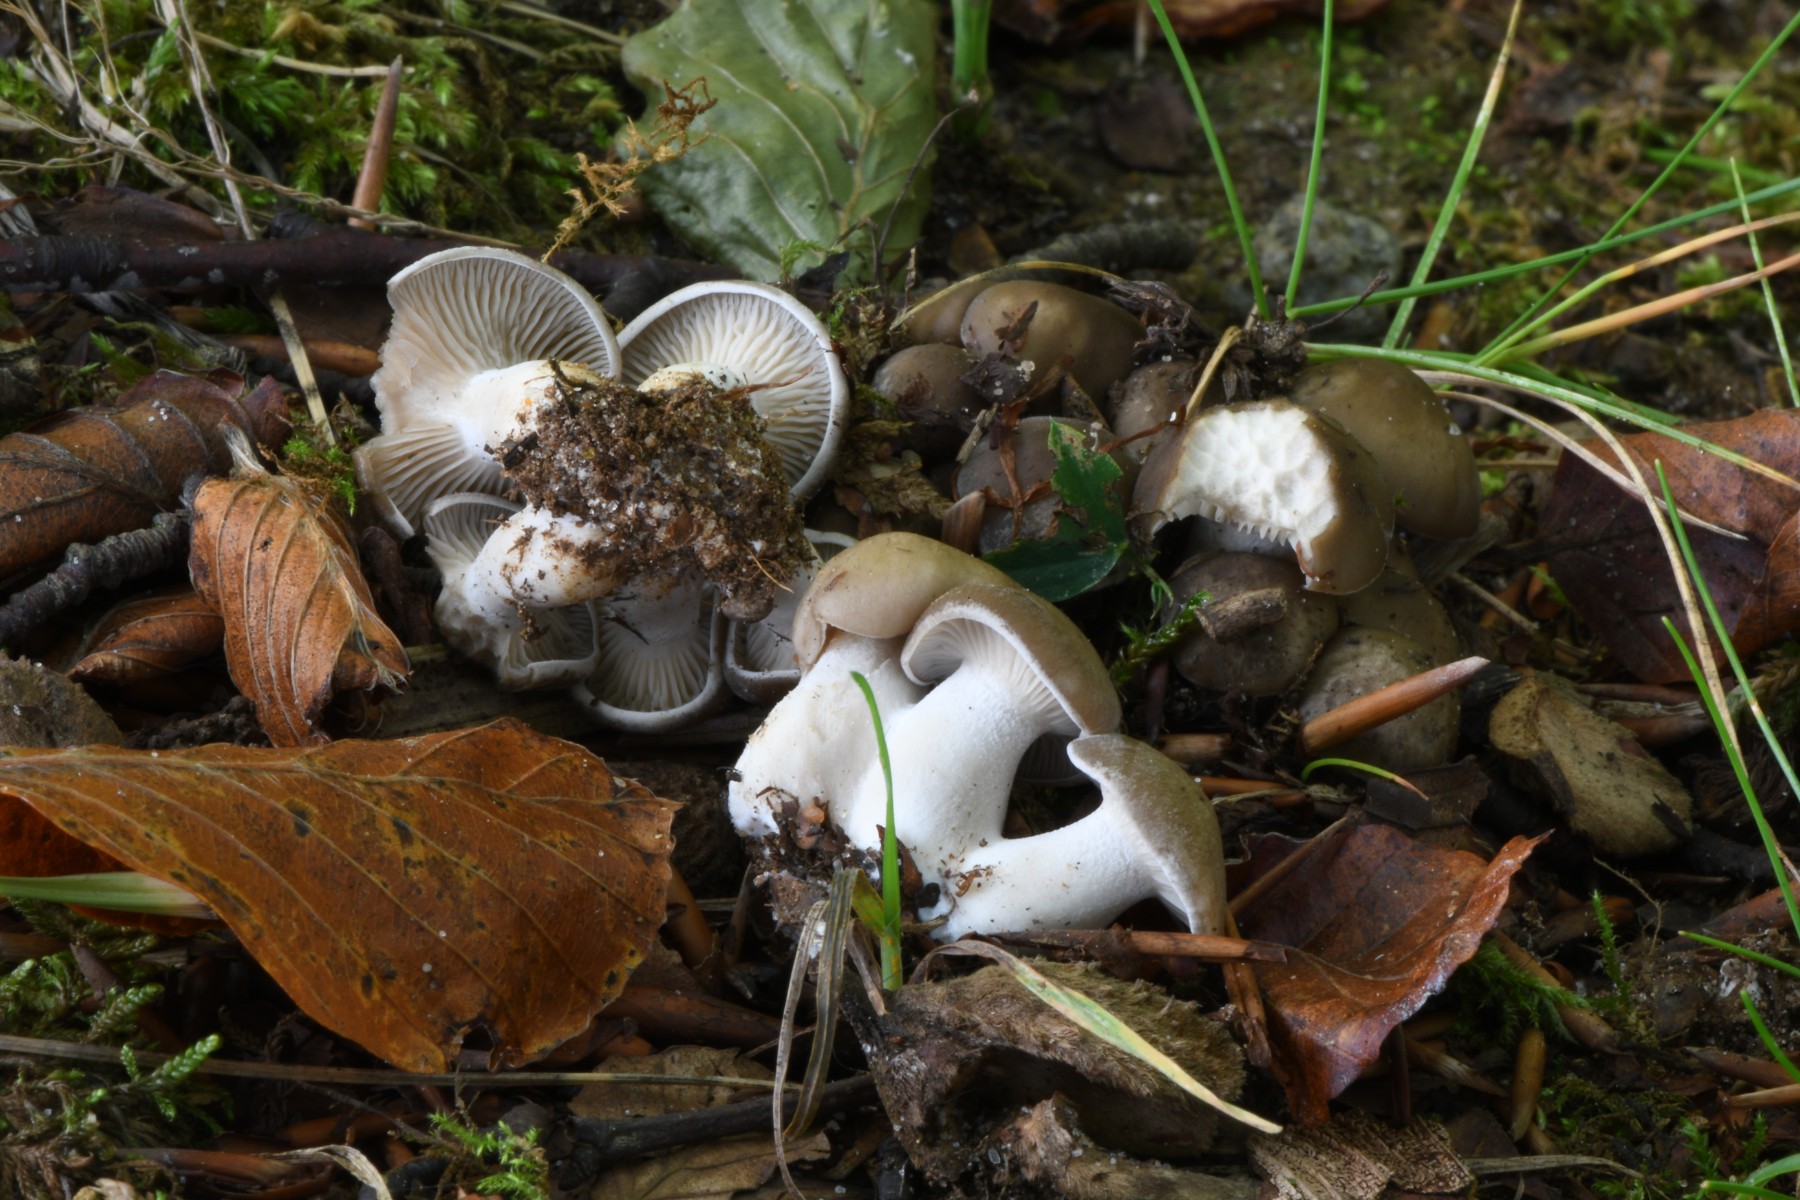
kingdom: Fungi
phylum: Basidiomycota
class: Agaricomycetes
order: Agaricales
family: Lyophyllaceae
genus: Lyophyllum
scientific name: Lyophyllum decastes
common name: Clustered domecap
